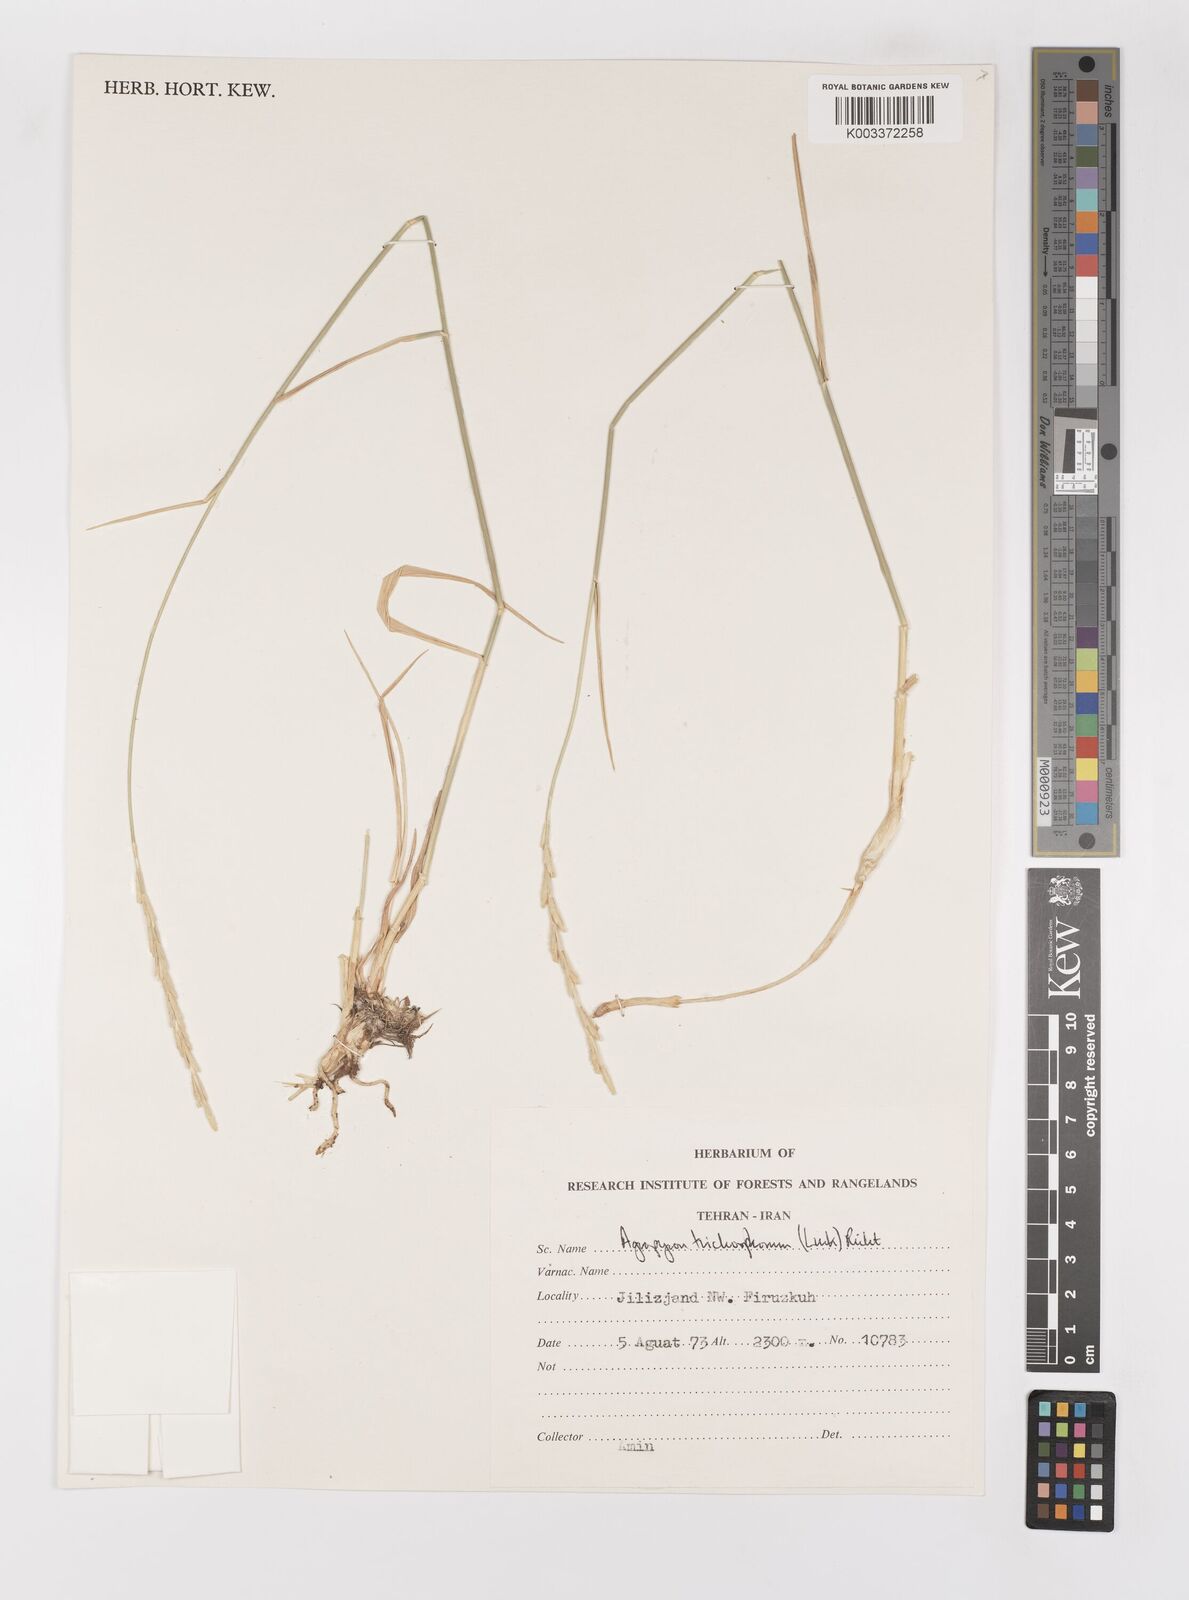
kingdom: Plantae
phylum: Tracheophyta
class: Liliopsida
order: Poales
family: Poaceae
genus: Thinopyrum
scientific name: Thinopyrum intermedium
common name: Intermediate wheatgrass
